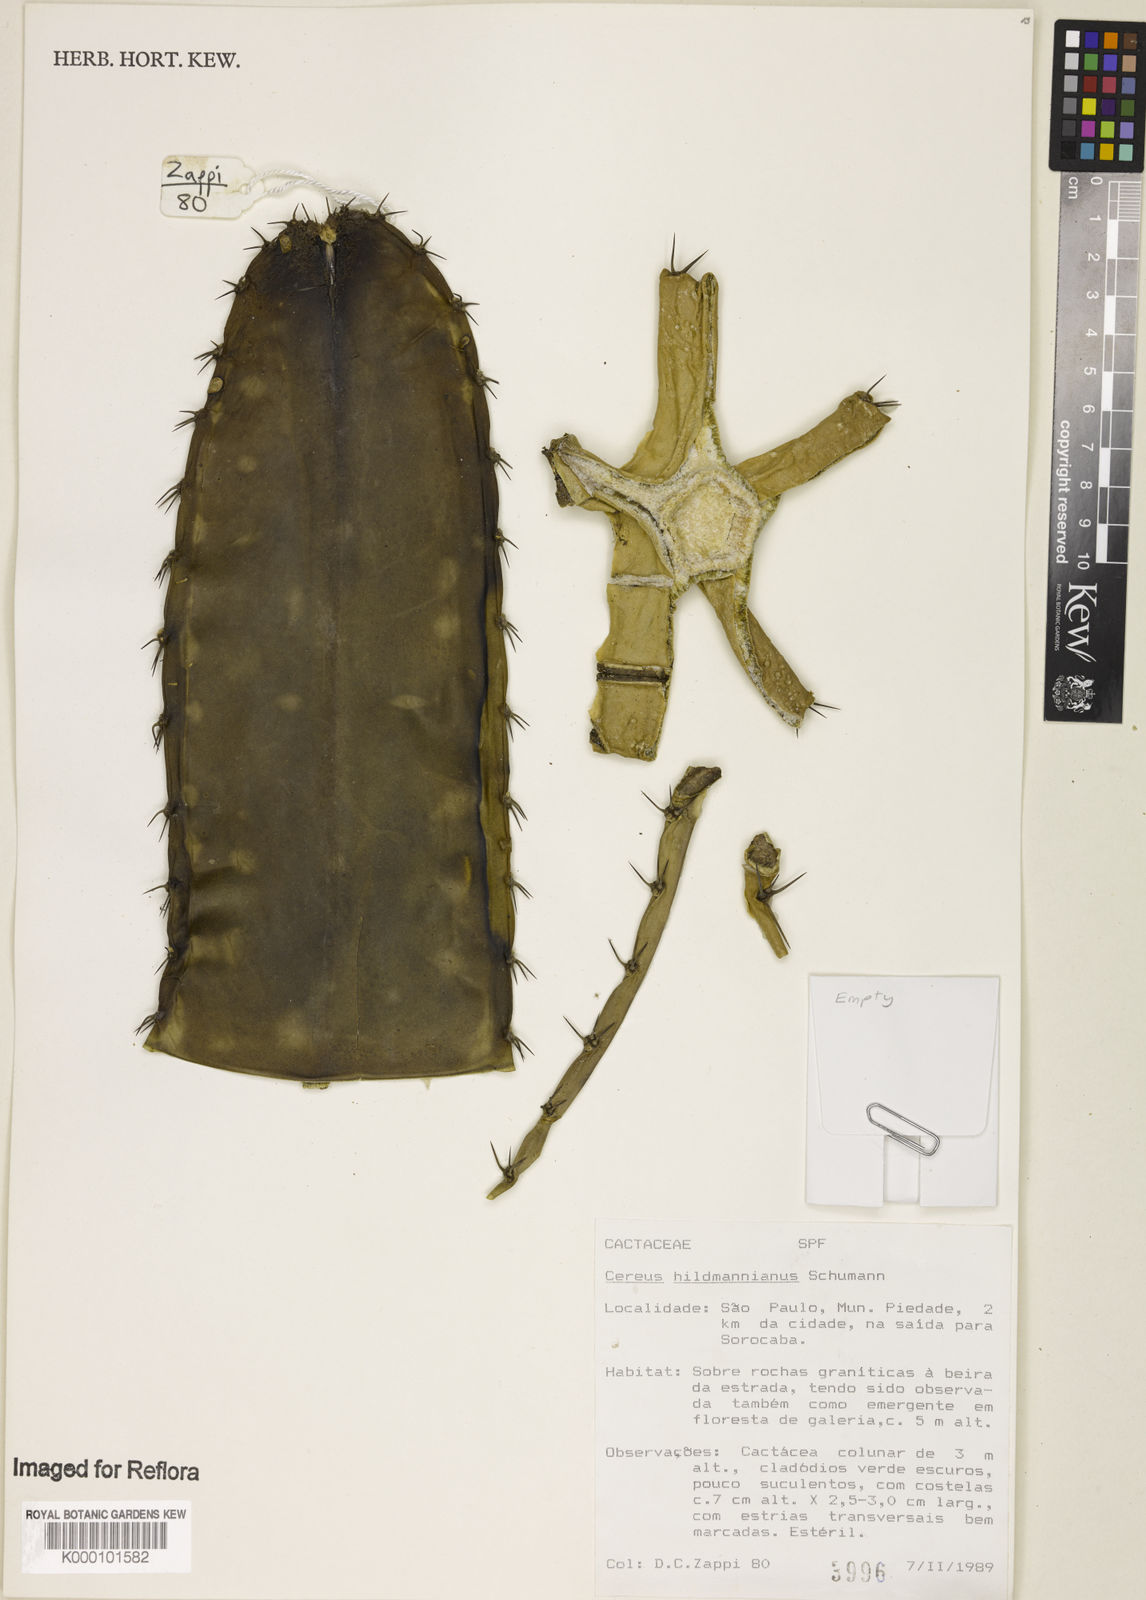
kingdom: Plantae
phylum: Tracheophyta
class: Magnoliopsida
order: Caryophyllales
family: Cactaceae
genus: Cereus
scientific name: Cereus hildmannianus
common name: Hedge cactus
